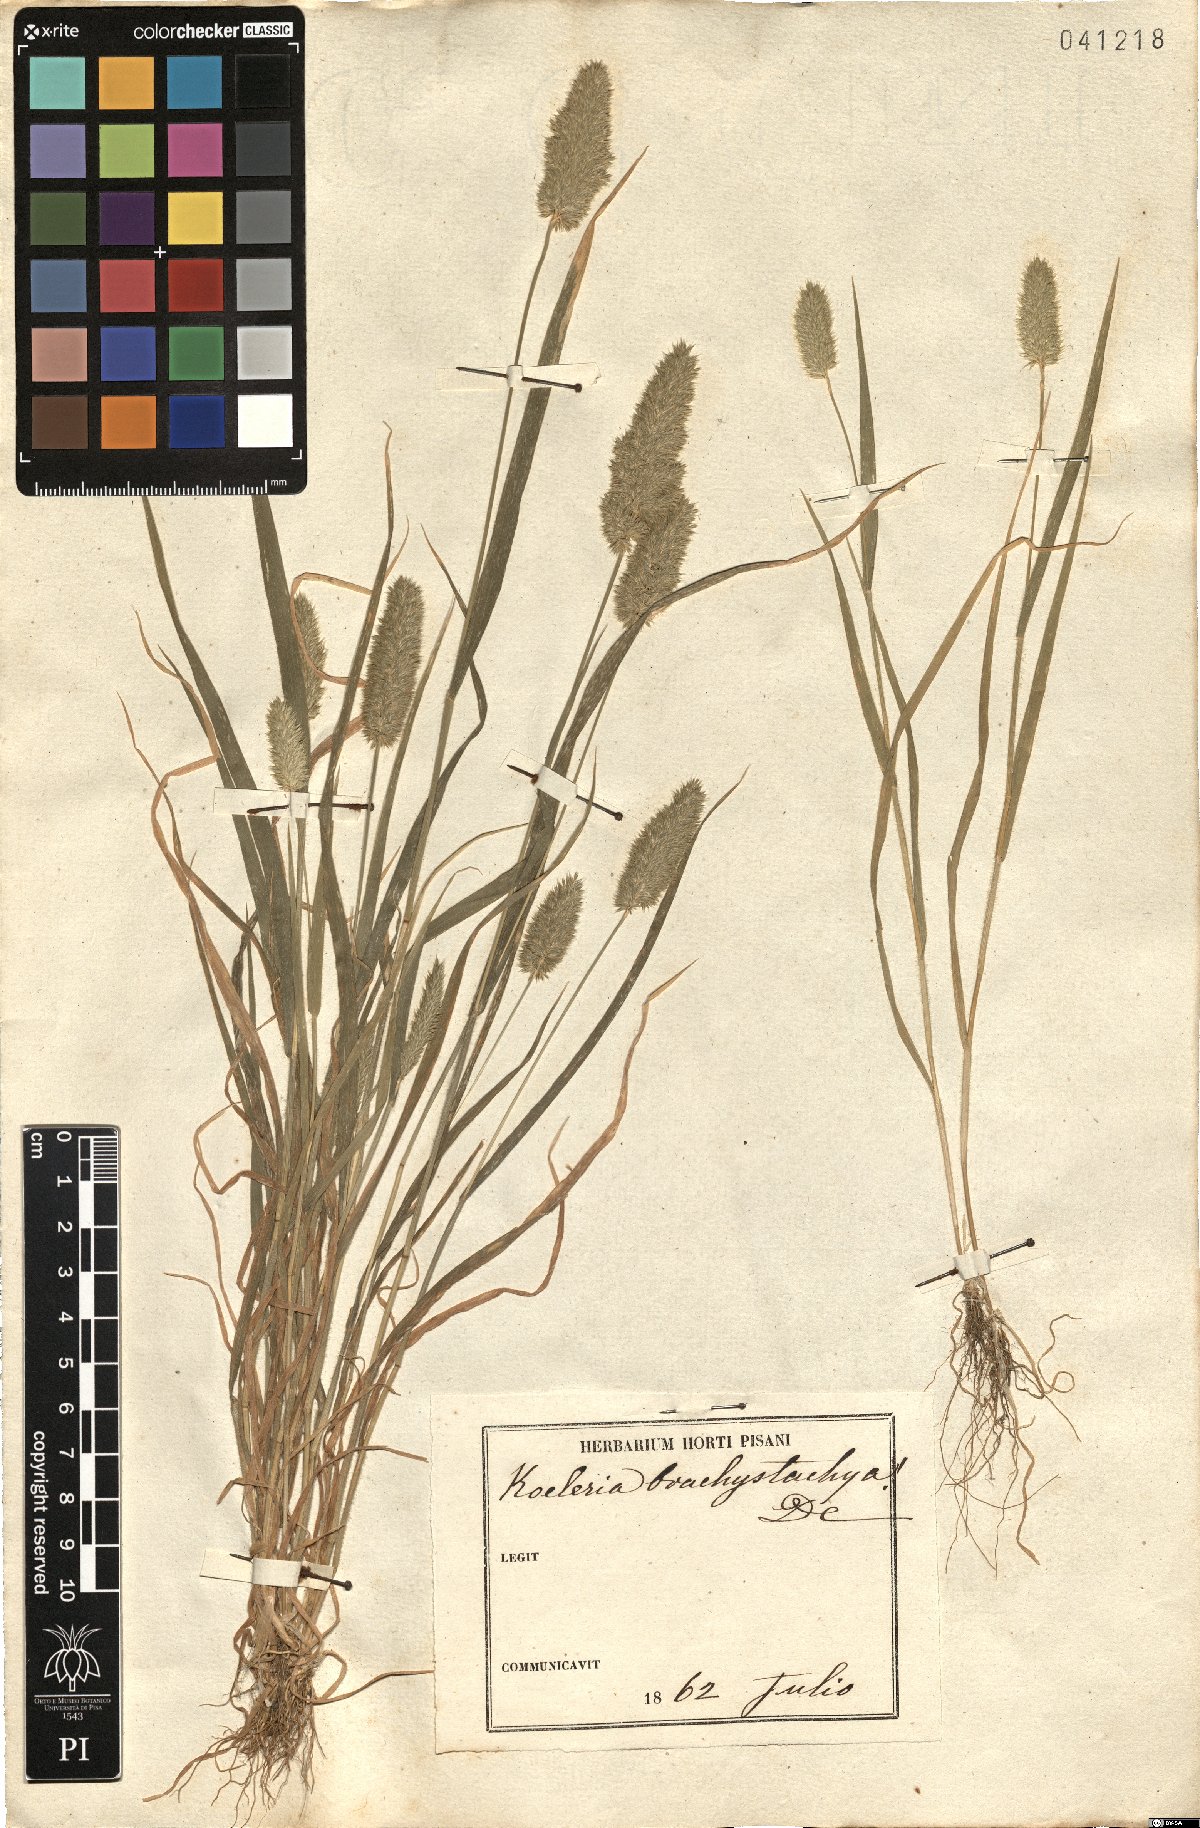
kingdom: Plantae
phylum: Tracheophyta
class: Liliopsida
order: Poales
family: Poaceae
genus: Rostraria
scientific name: Rostraria cristata
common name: Mediterranean hair-grass
